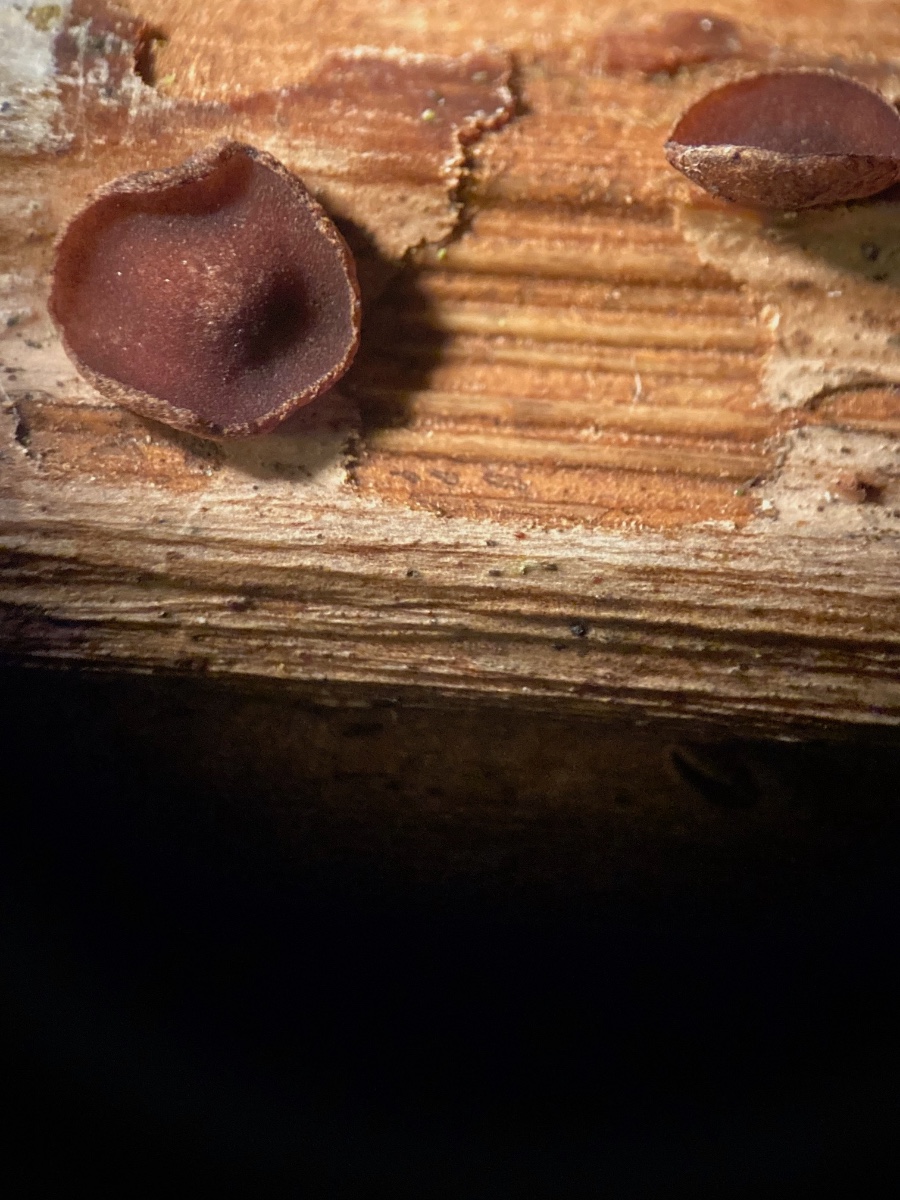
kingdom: Fungi
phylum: Ascomycota
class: Leotiomycetes
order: Helotiales
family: Rutstroemiaceae
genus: Rutstroemia
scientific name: Rutstroemia
